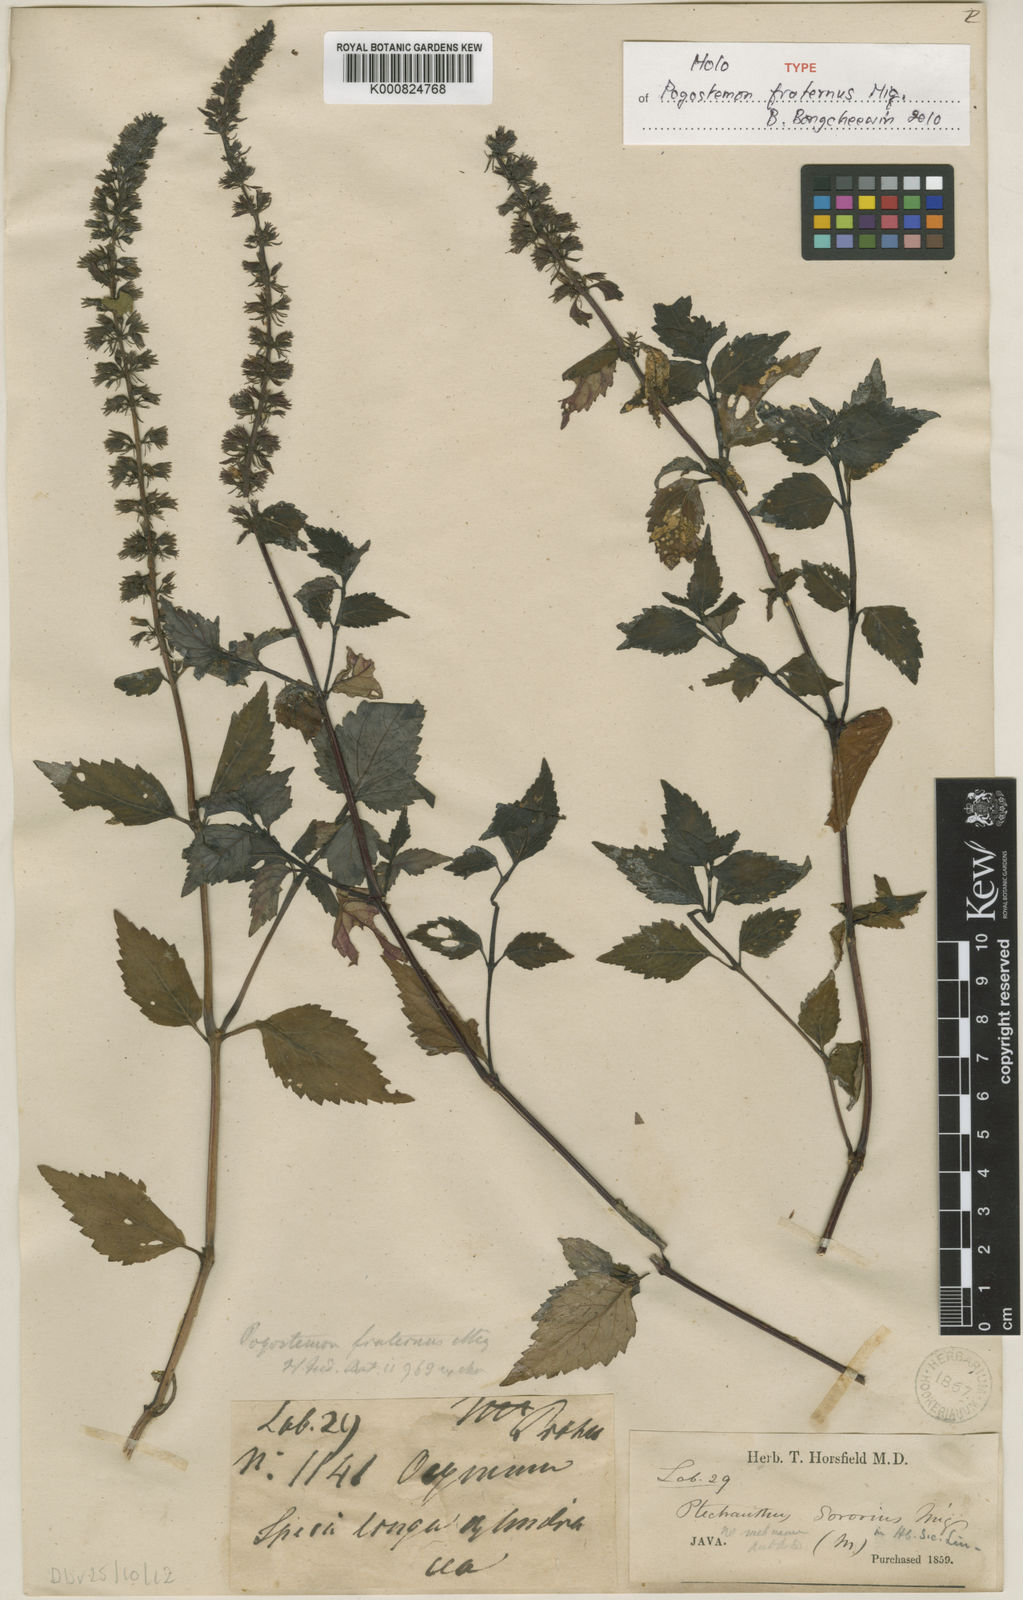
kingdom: Plantae
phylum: Tracheophyta
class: Magnoliopsida
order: Lamiales
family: Lamiaceae
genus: Pogostemon
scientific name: Pogostemon menthoides
